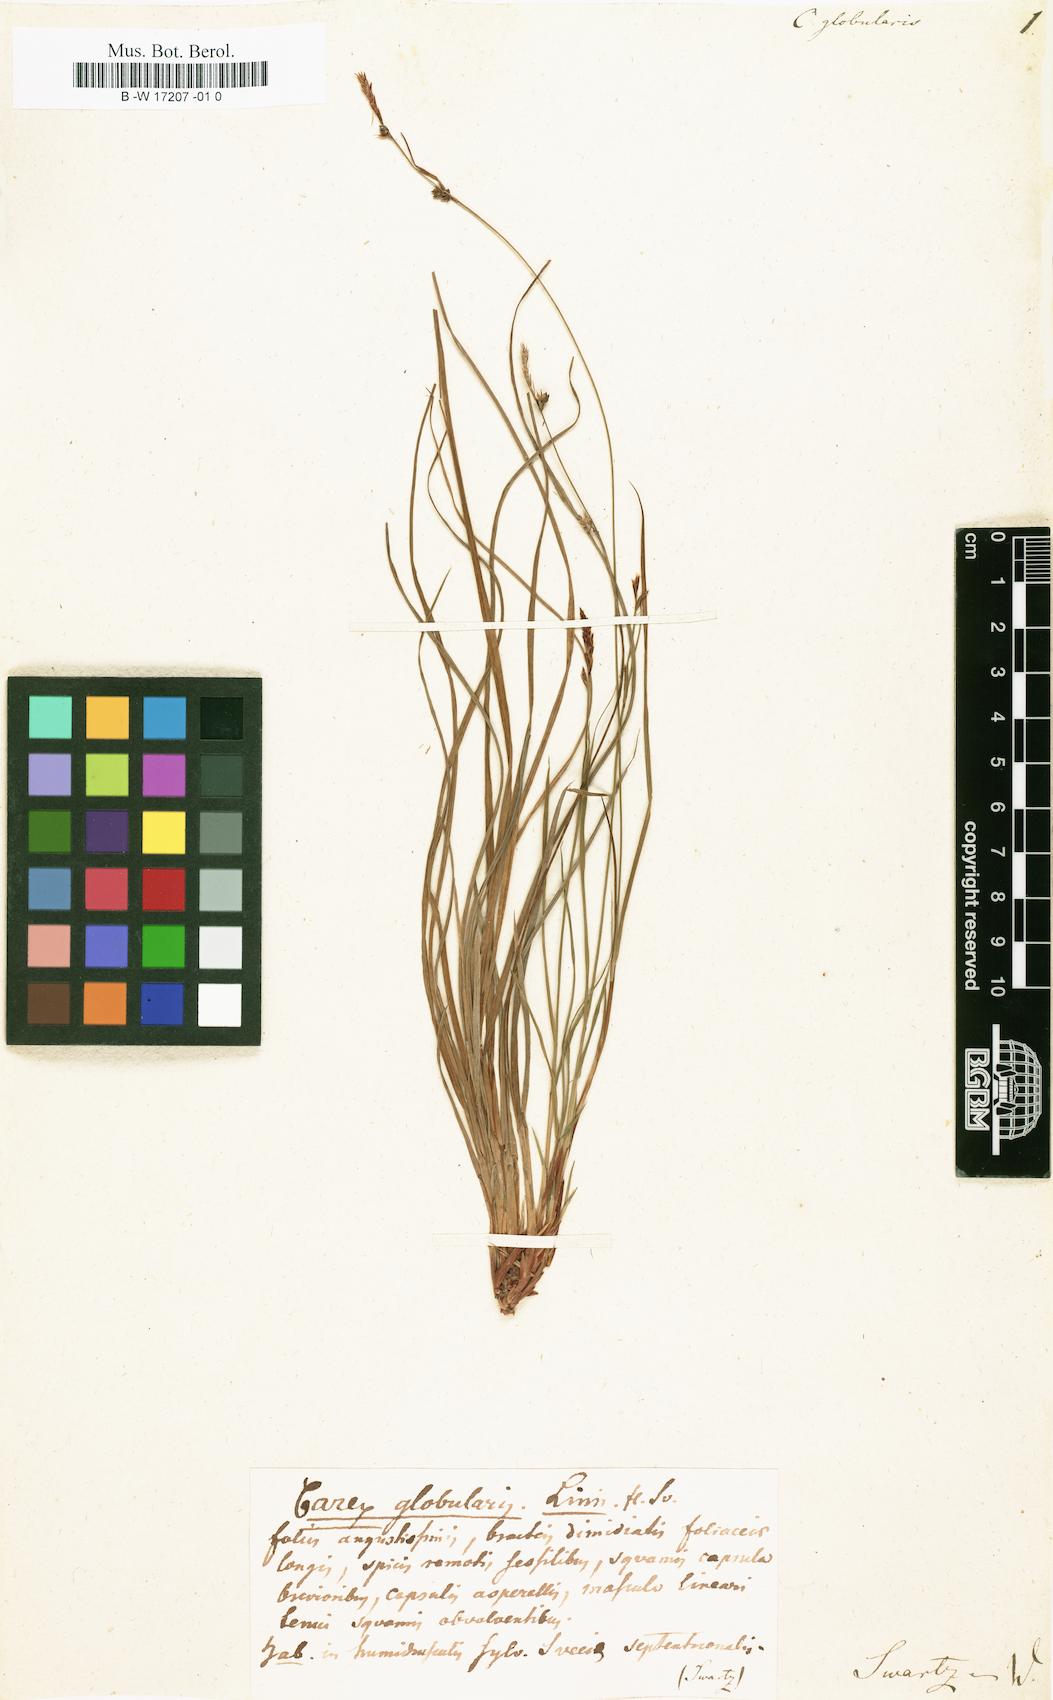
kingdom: Plantae
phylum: Tracheophyta
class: Liliopsida
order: Poales
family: Cyperaceae
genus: Carex
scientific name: Carex globularis
